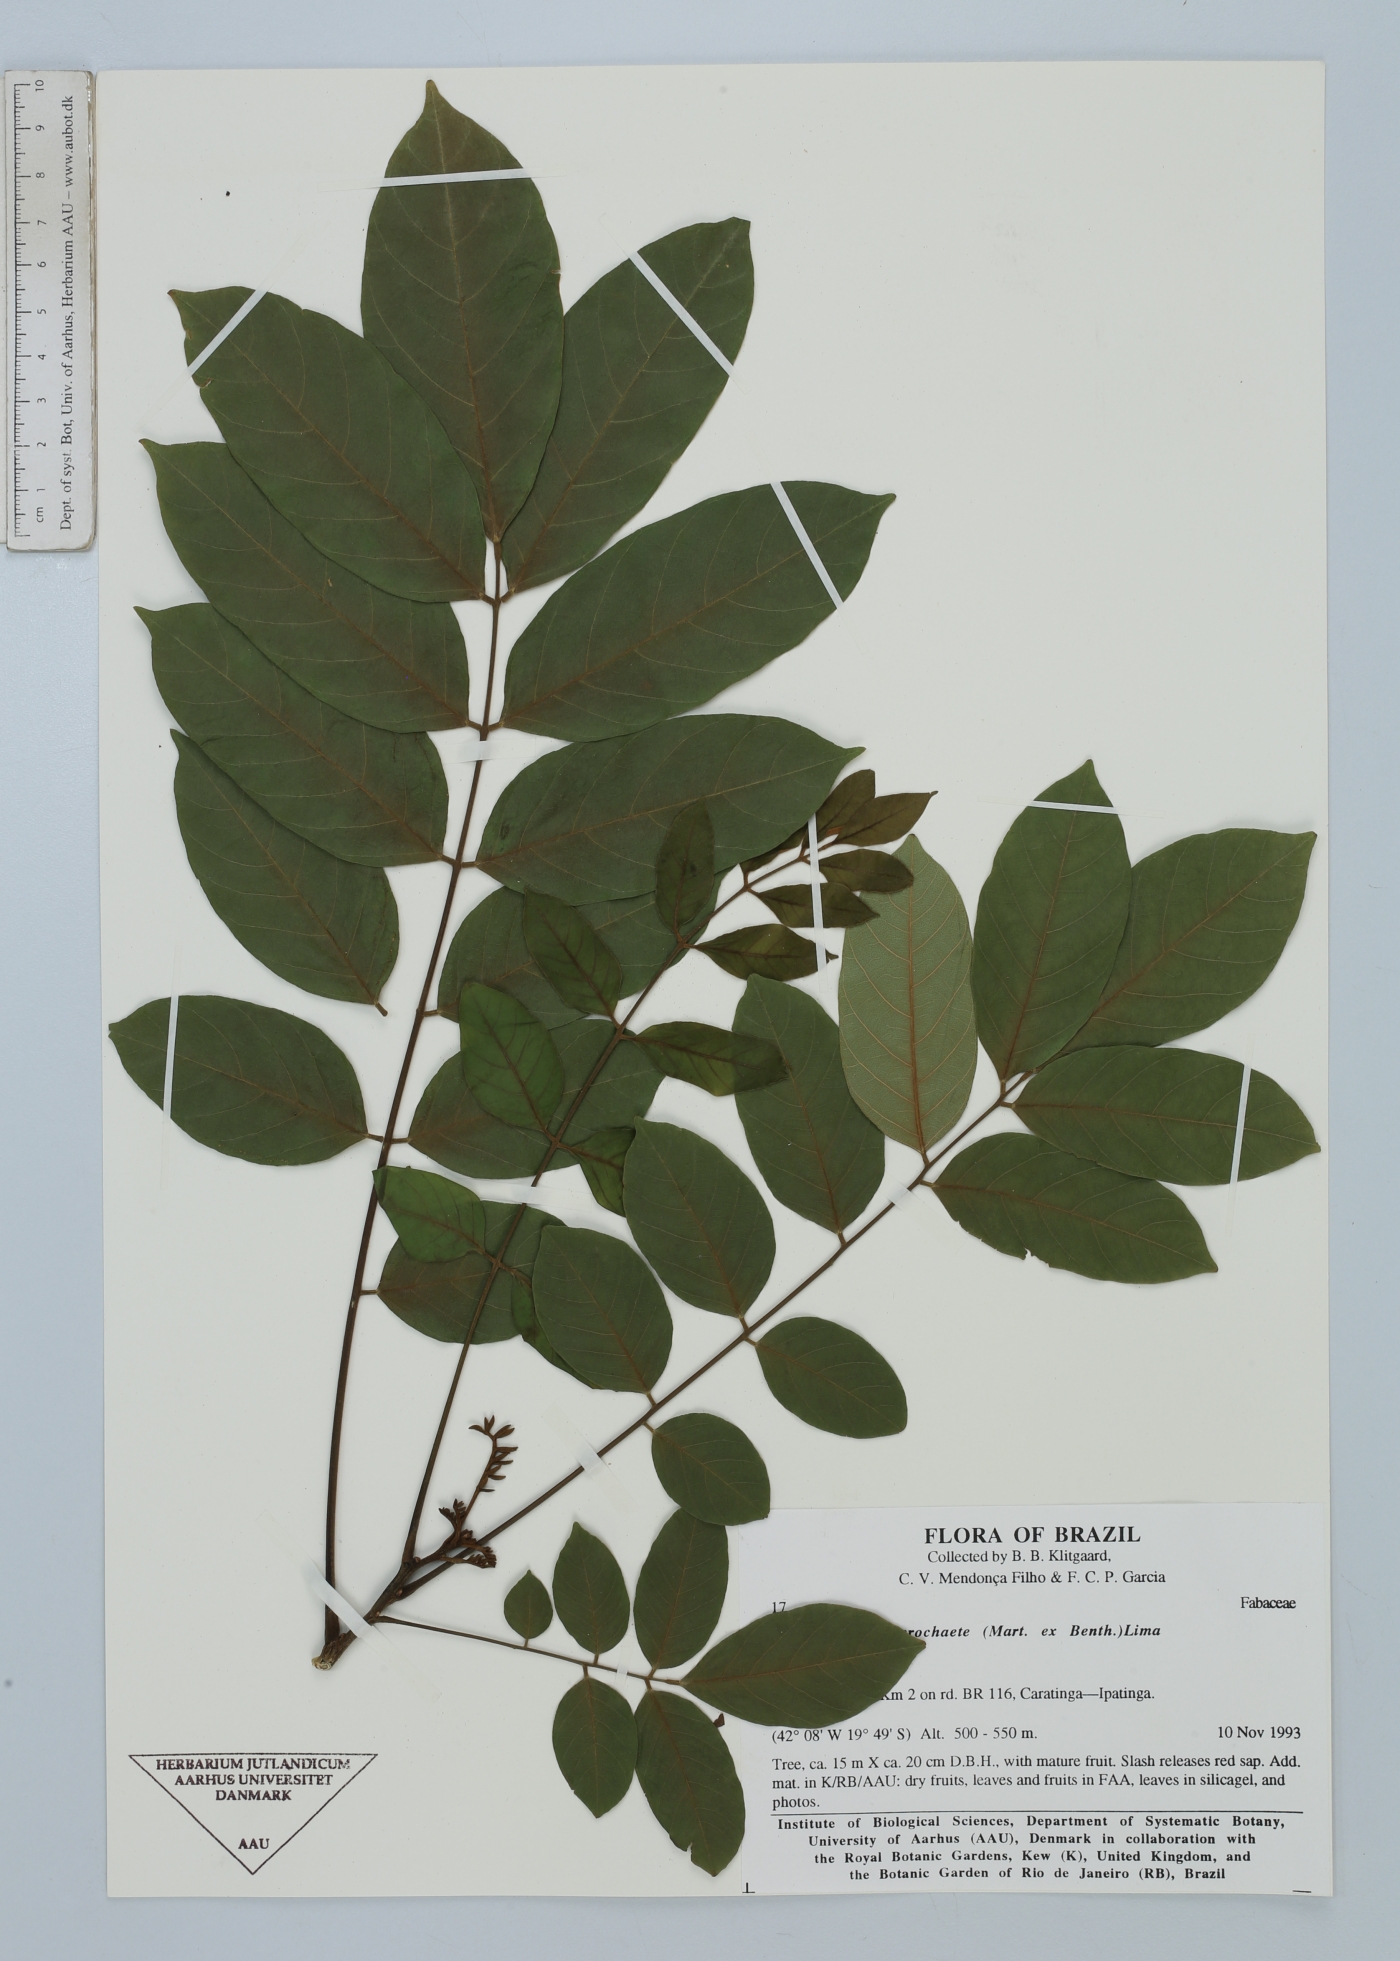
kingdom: Plantae
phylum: Tracheophyta
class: Magnoliopsida
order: Fabales
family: Fabaceae
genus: Centrolobium
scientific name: Centrolobium microchaete
